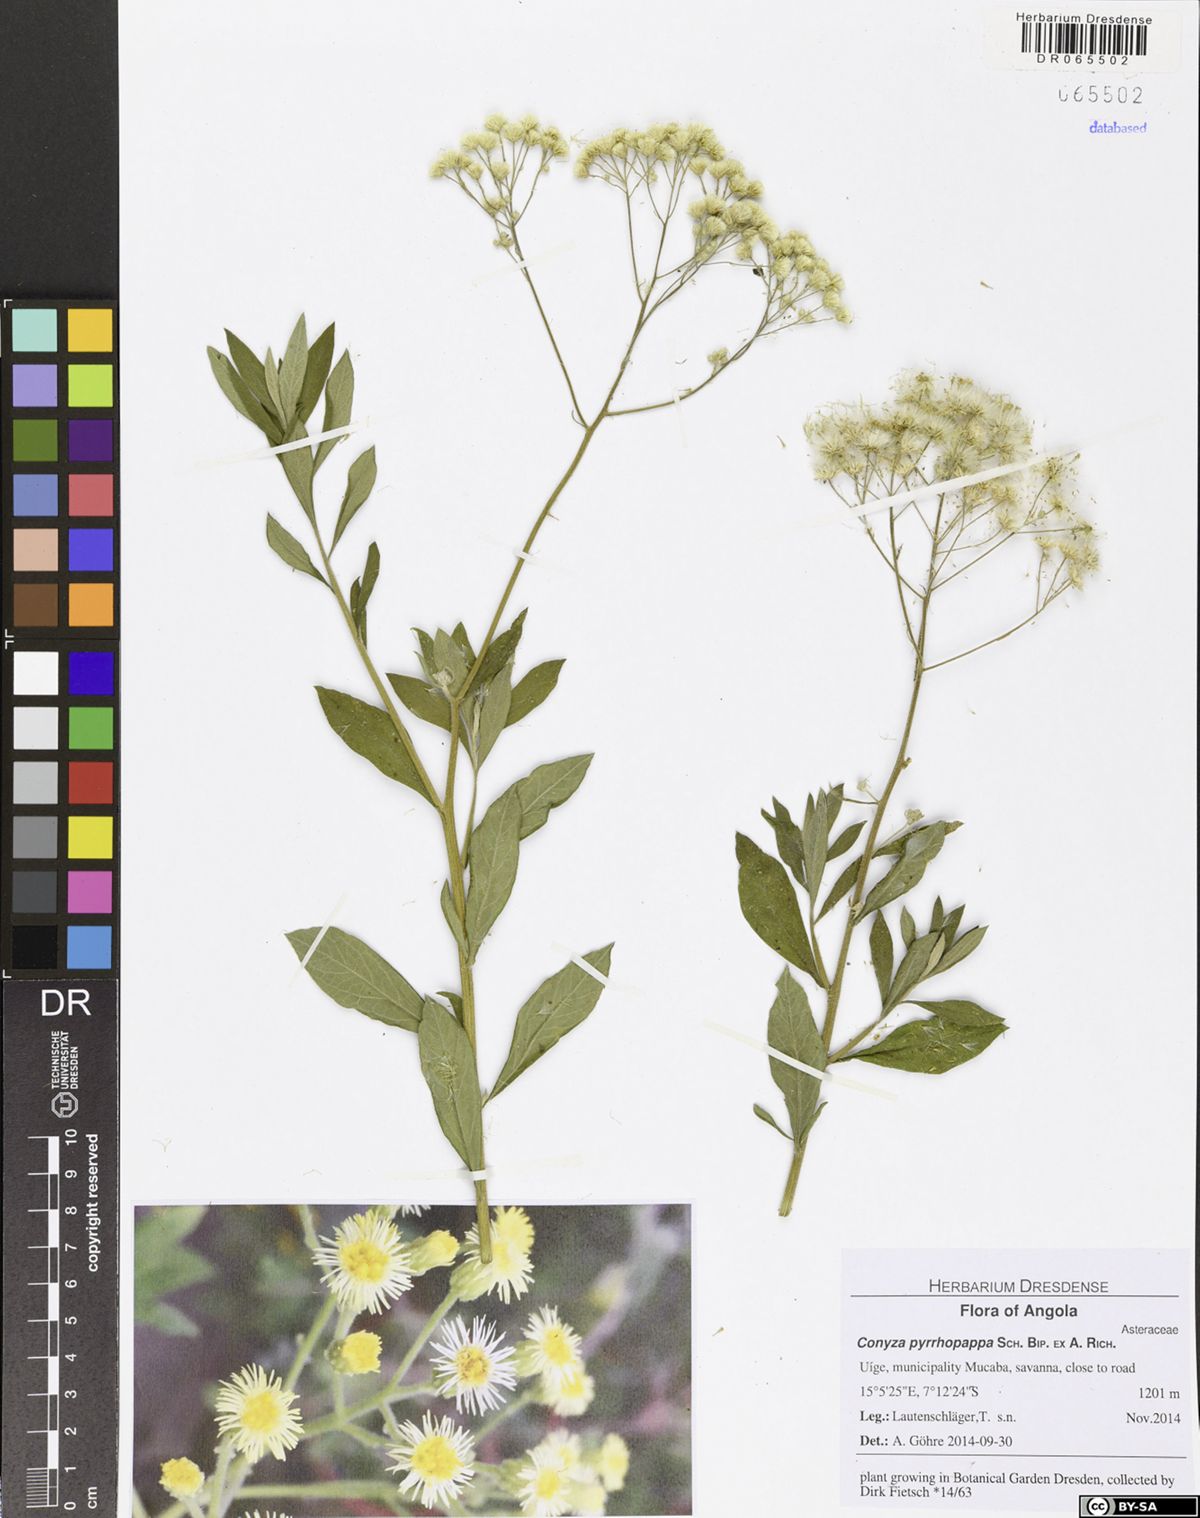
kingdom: Plantae
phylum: Tracheophyta
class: Magnoliopsida
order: Asterales
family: Asteraceae
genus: Microglossa
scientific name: Microglossa pyrrhopappa
